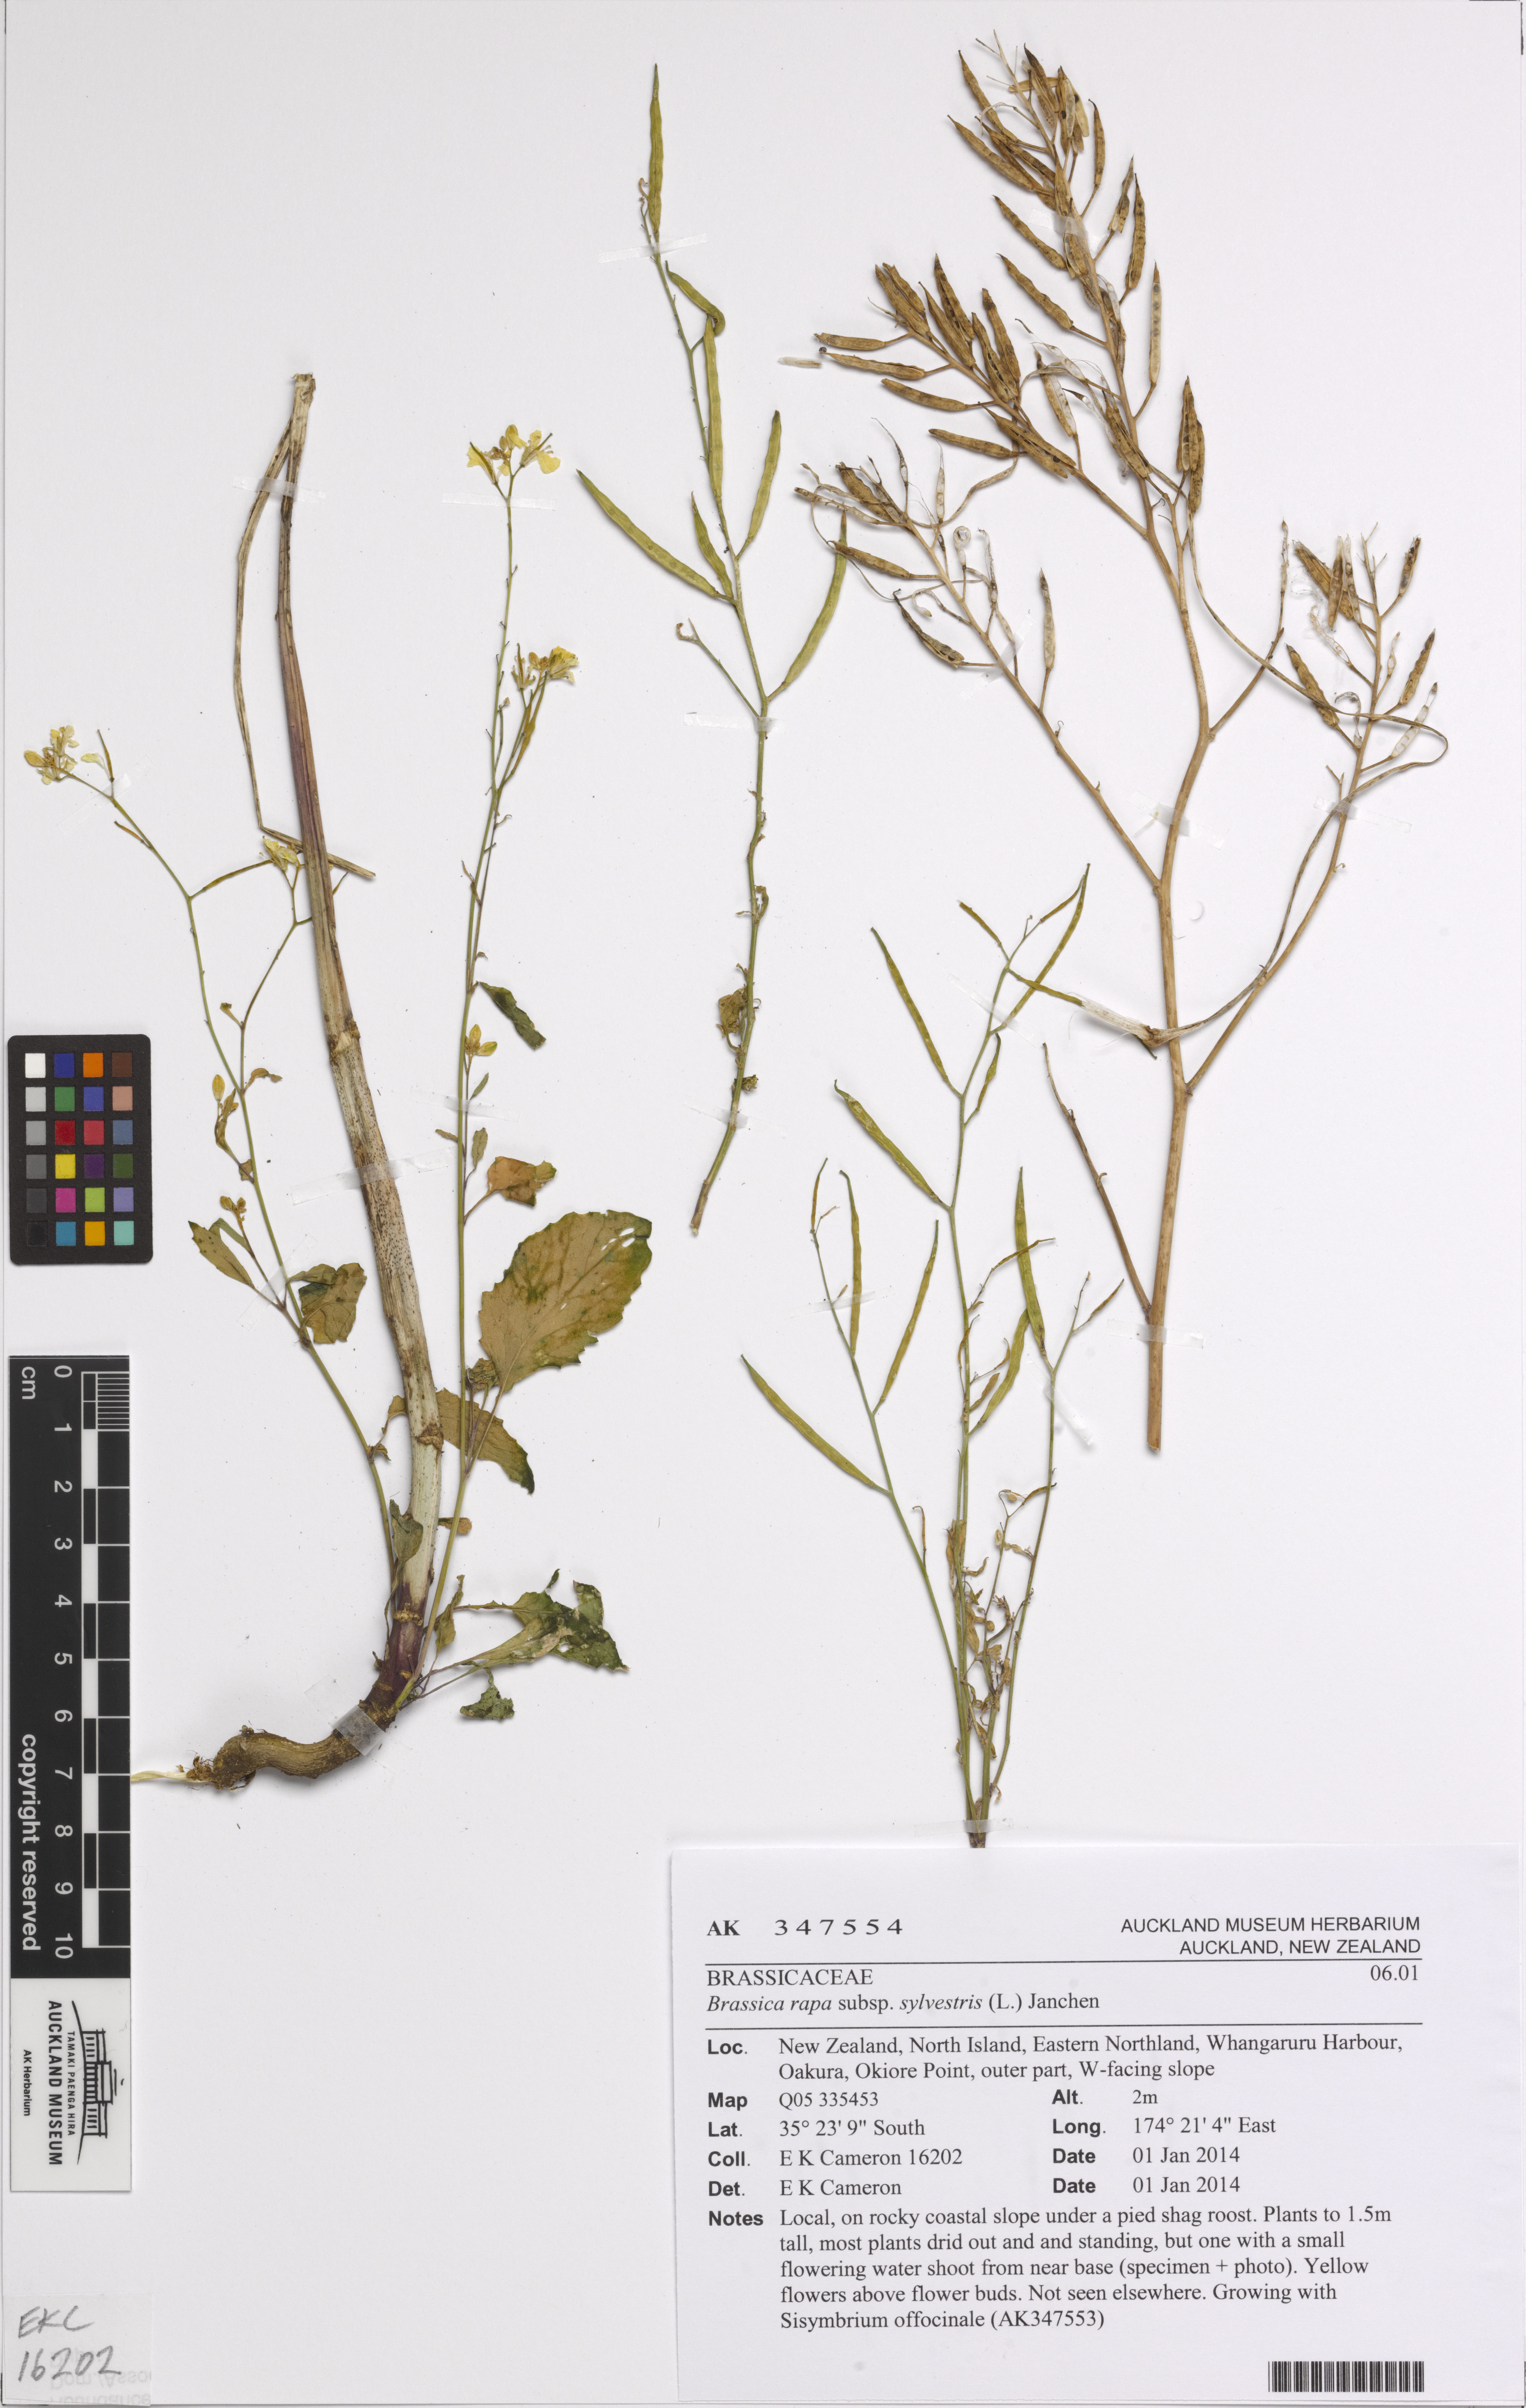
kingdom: Plantae
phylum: Tracheophyta
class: Magnoliopsida
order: Brassicales
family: Brassicaceae
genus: Brassica
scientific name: Brassica rapa
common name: Field mustard
